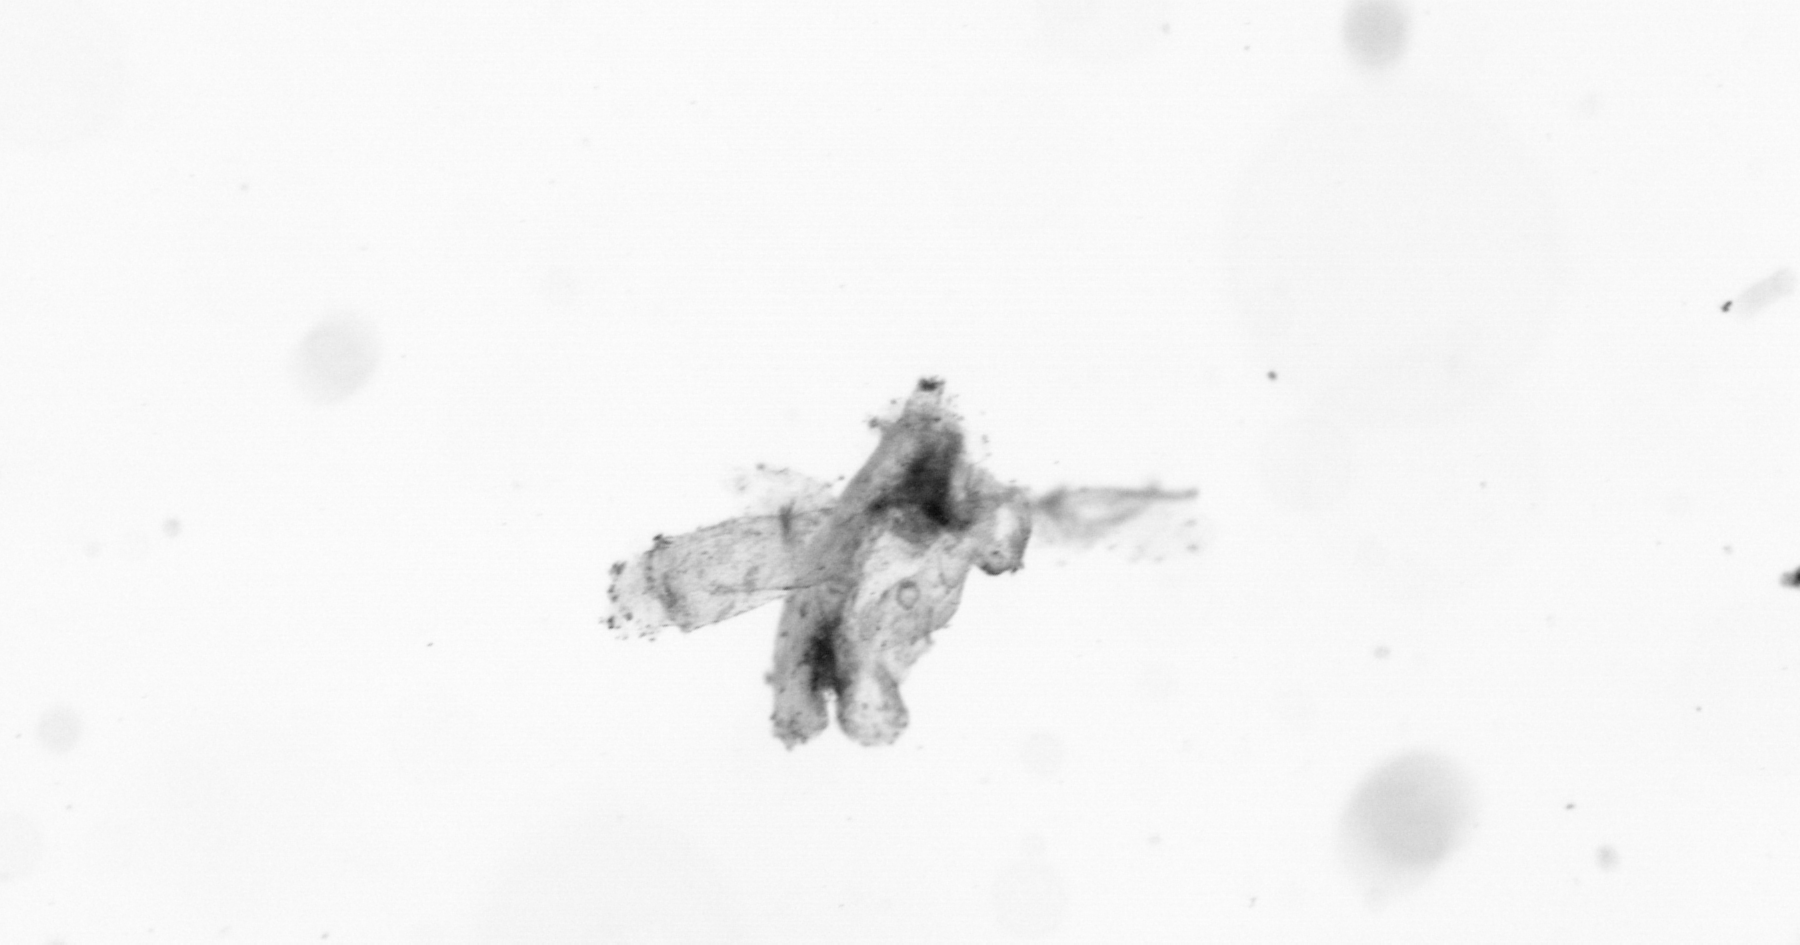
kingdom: Animalia
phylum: Annelida
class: Polychaeta
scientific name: Polychaeta
